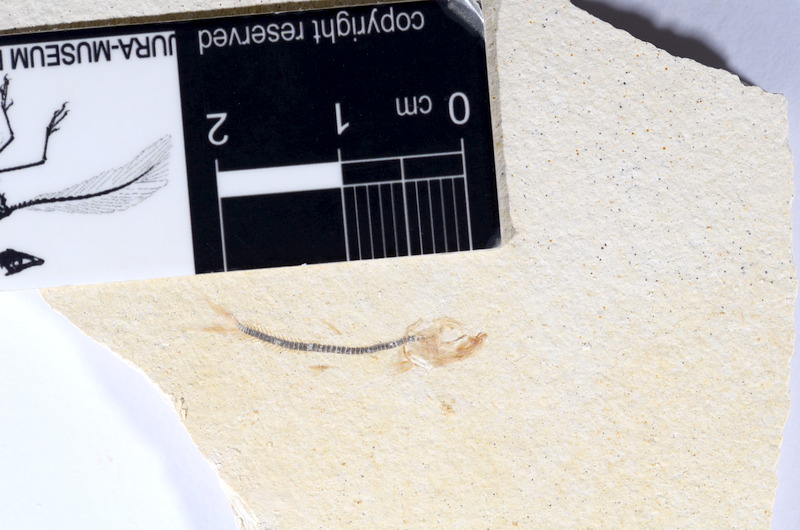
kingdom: Animalia
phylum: Chordata
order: Salmoniformes
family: Orthogonikleithridae
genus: Orthogonikleithrus
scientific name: Orthogonikleithrus hoelli
